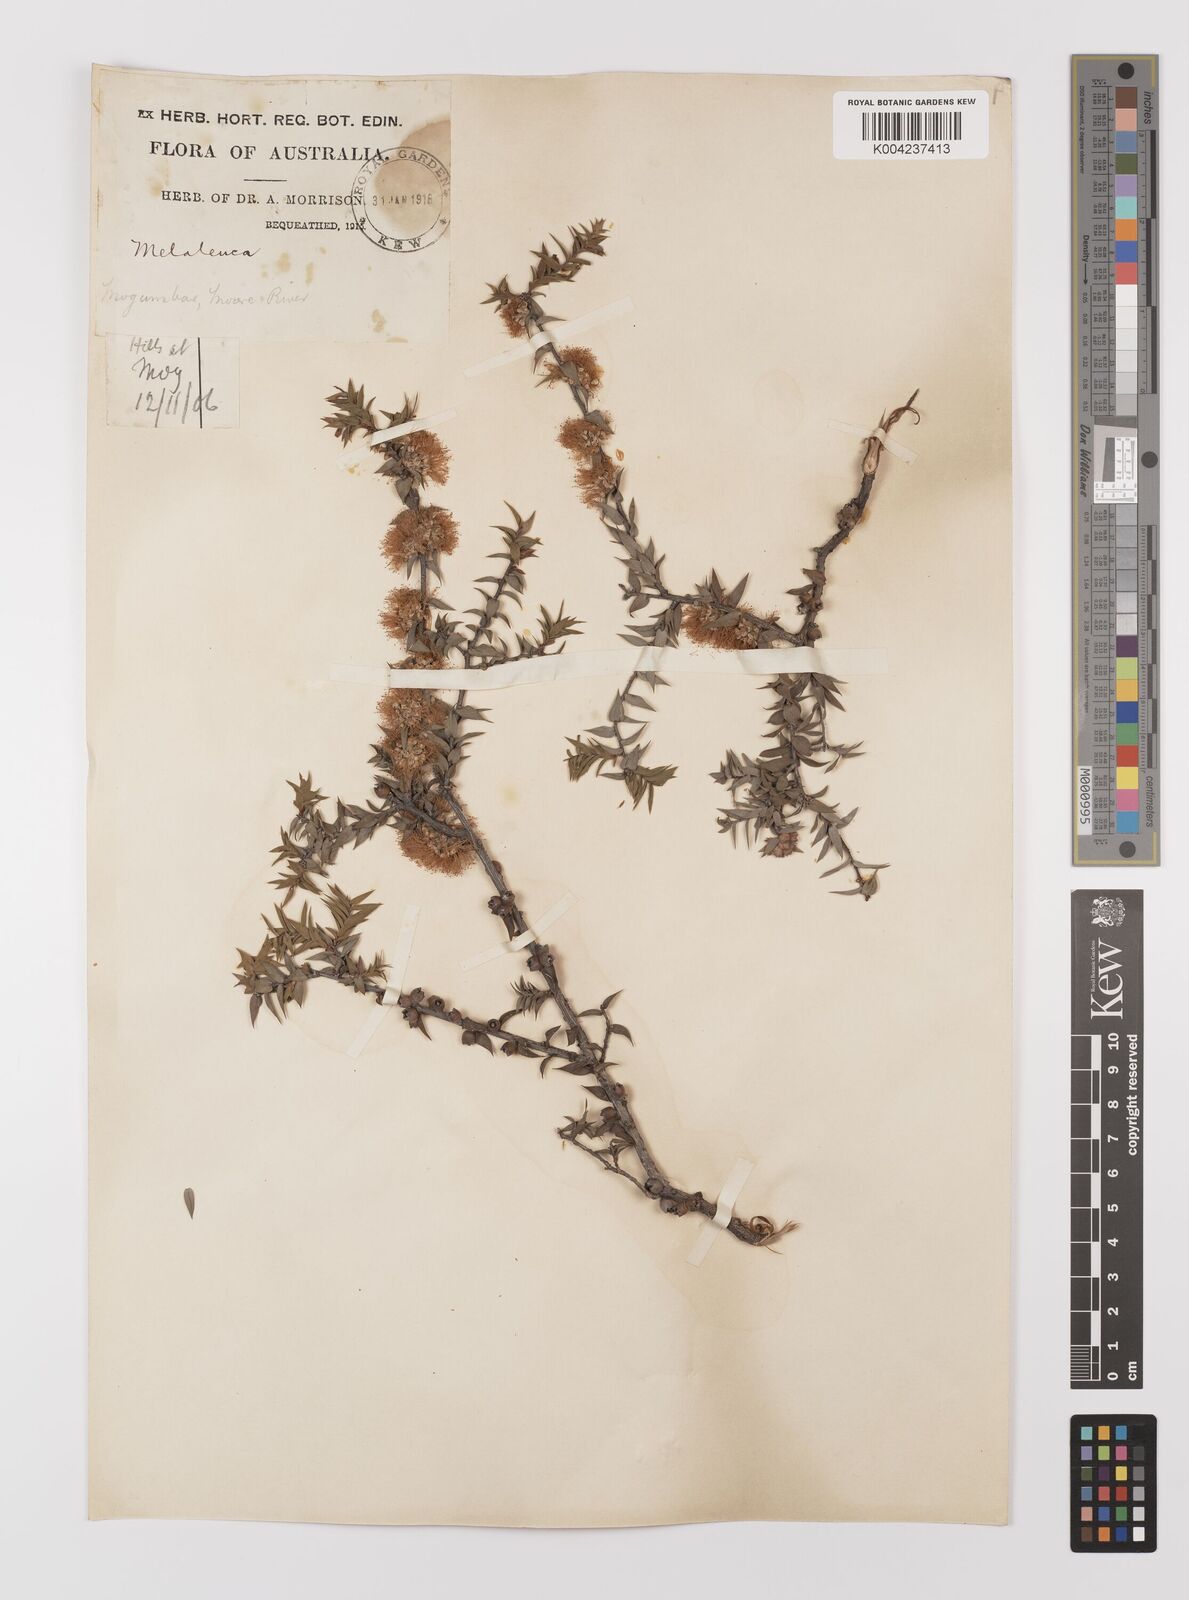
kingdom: Plantae
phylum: Tracheophyta
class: Magnoliopsida
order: Myrtales
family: Myrtaceae
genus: Melaleuca
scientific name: Melaleuca
